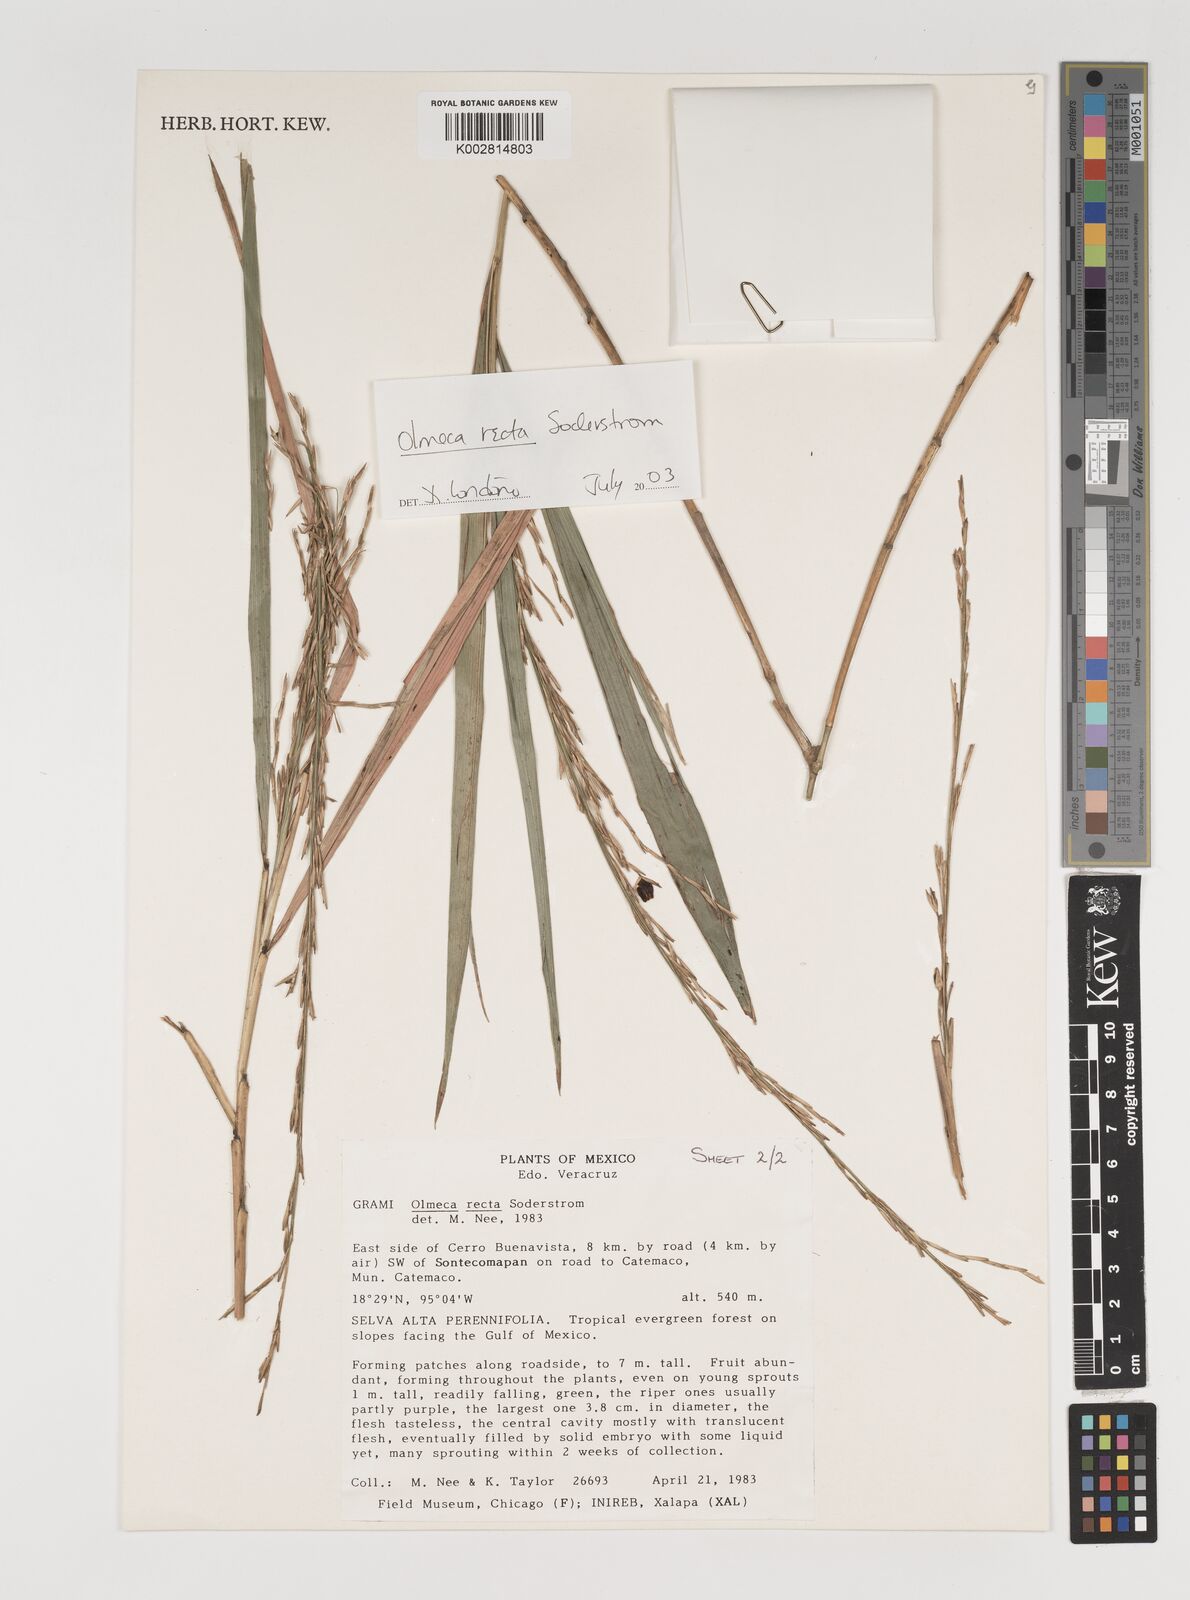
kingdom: Plantae
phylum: Tracheophyta
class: Liliopsida
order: Poales
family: Poaceae
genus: Olmeca
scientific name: Olmeca recta
